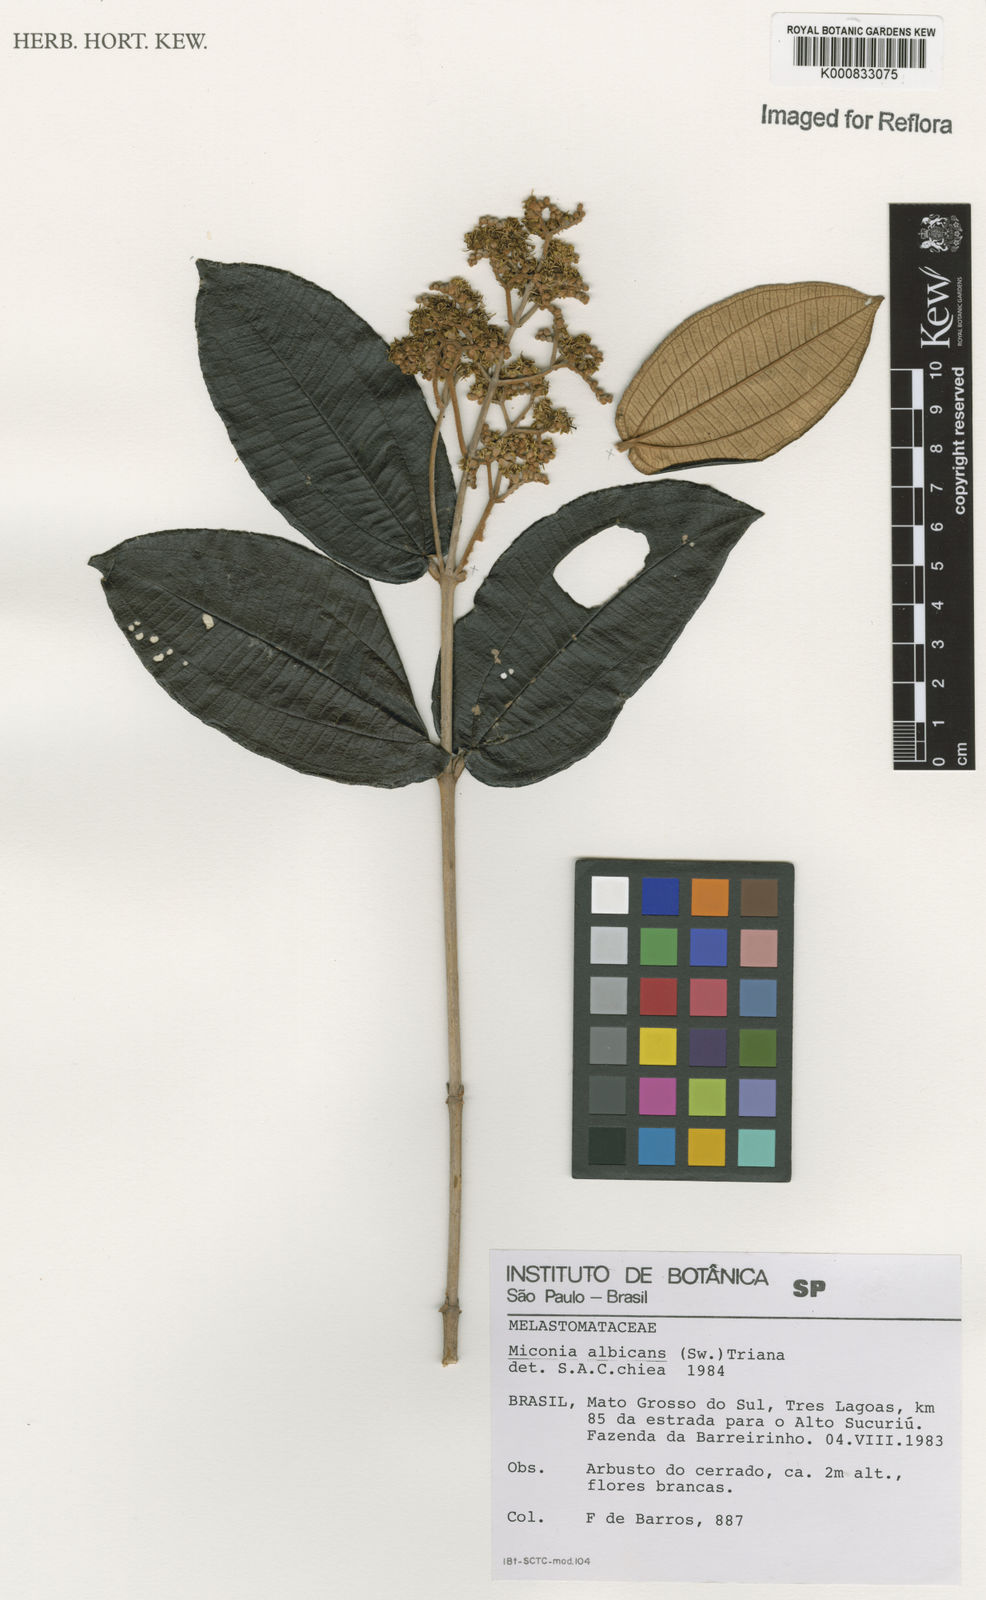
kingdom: Plantae
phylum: Tracheophyta
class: Magnoliopsida
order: Myrtales
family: Melastomataceae
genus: Miconia
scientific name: Miconia albicans
